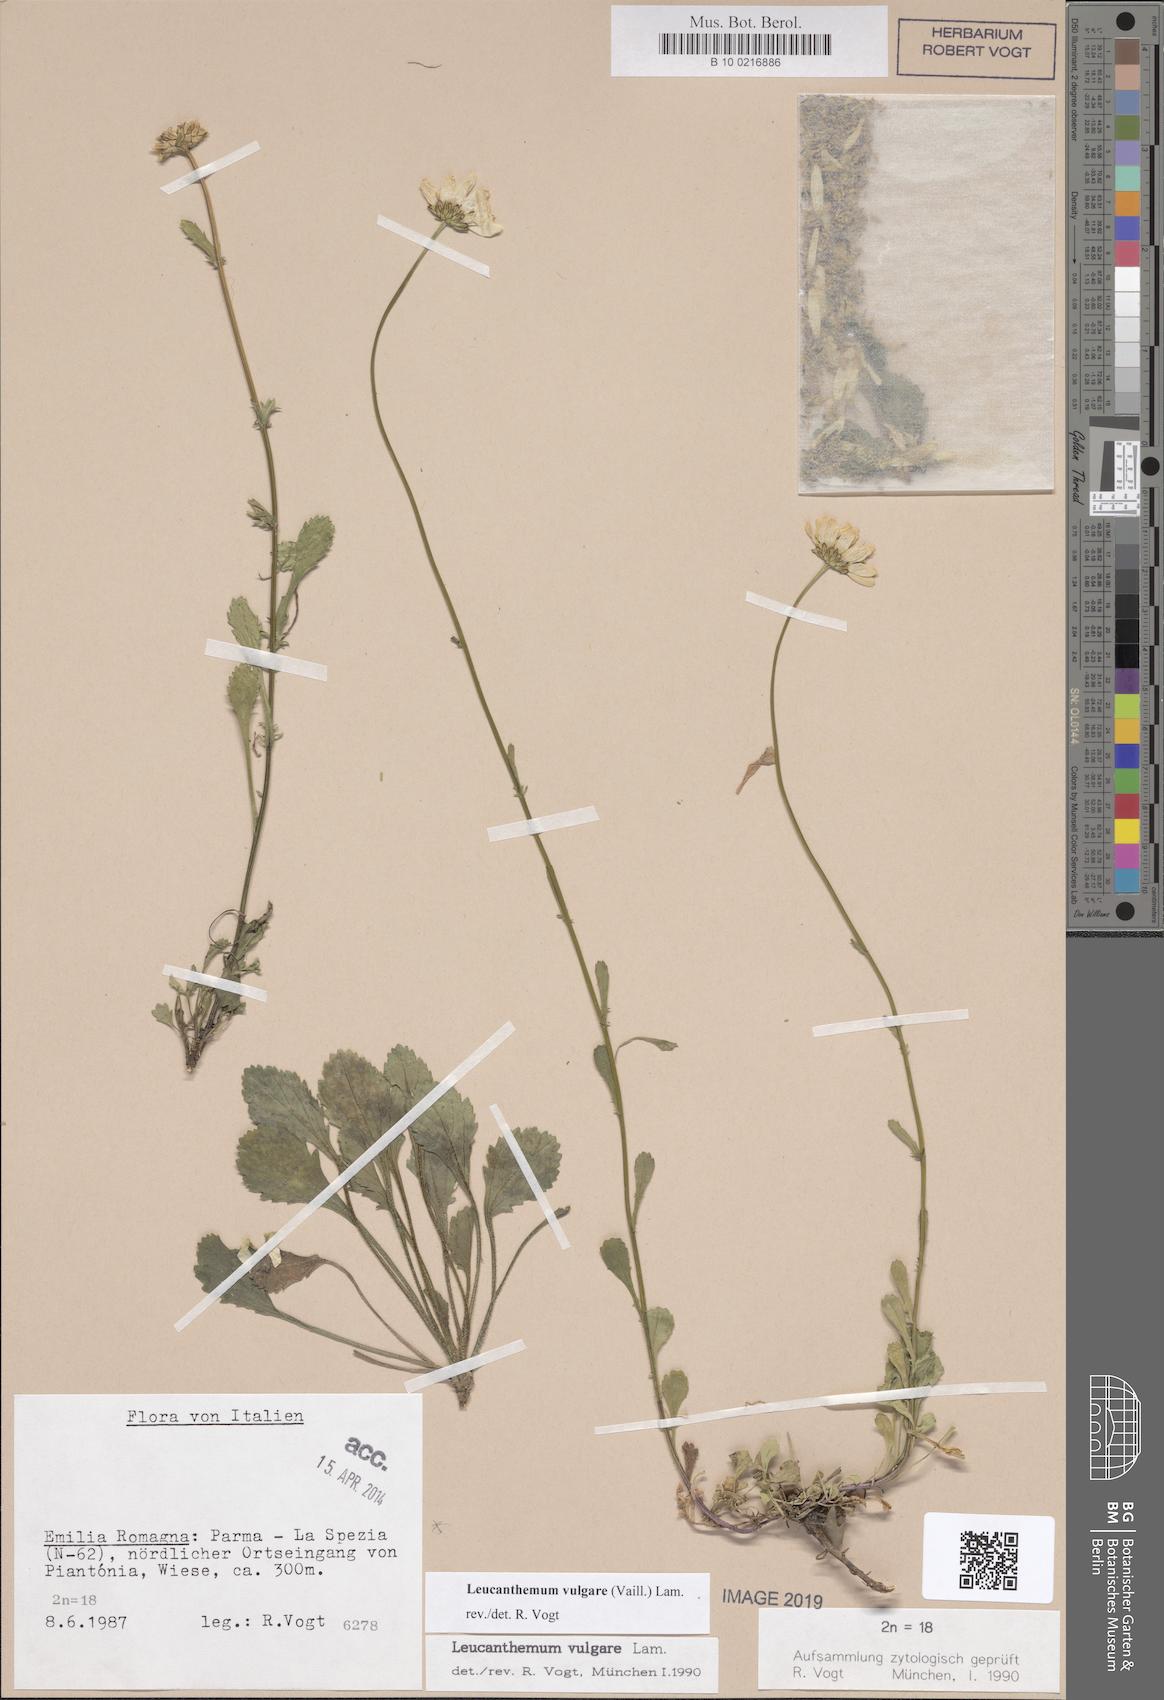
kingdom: Plantae
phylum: Tracheophyta
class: Magnoliopsida
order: Asterales
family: Asteraceae
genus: Leucanthemum
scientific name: Leucanthemum vulgare
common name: Oxeye daisy
